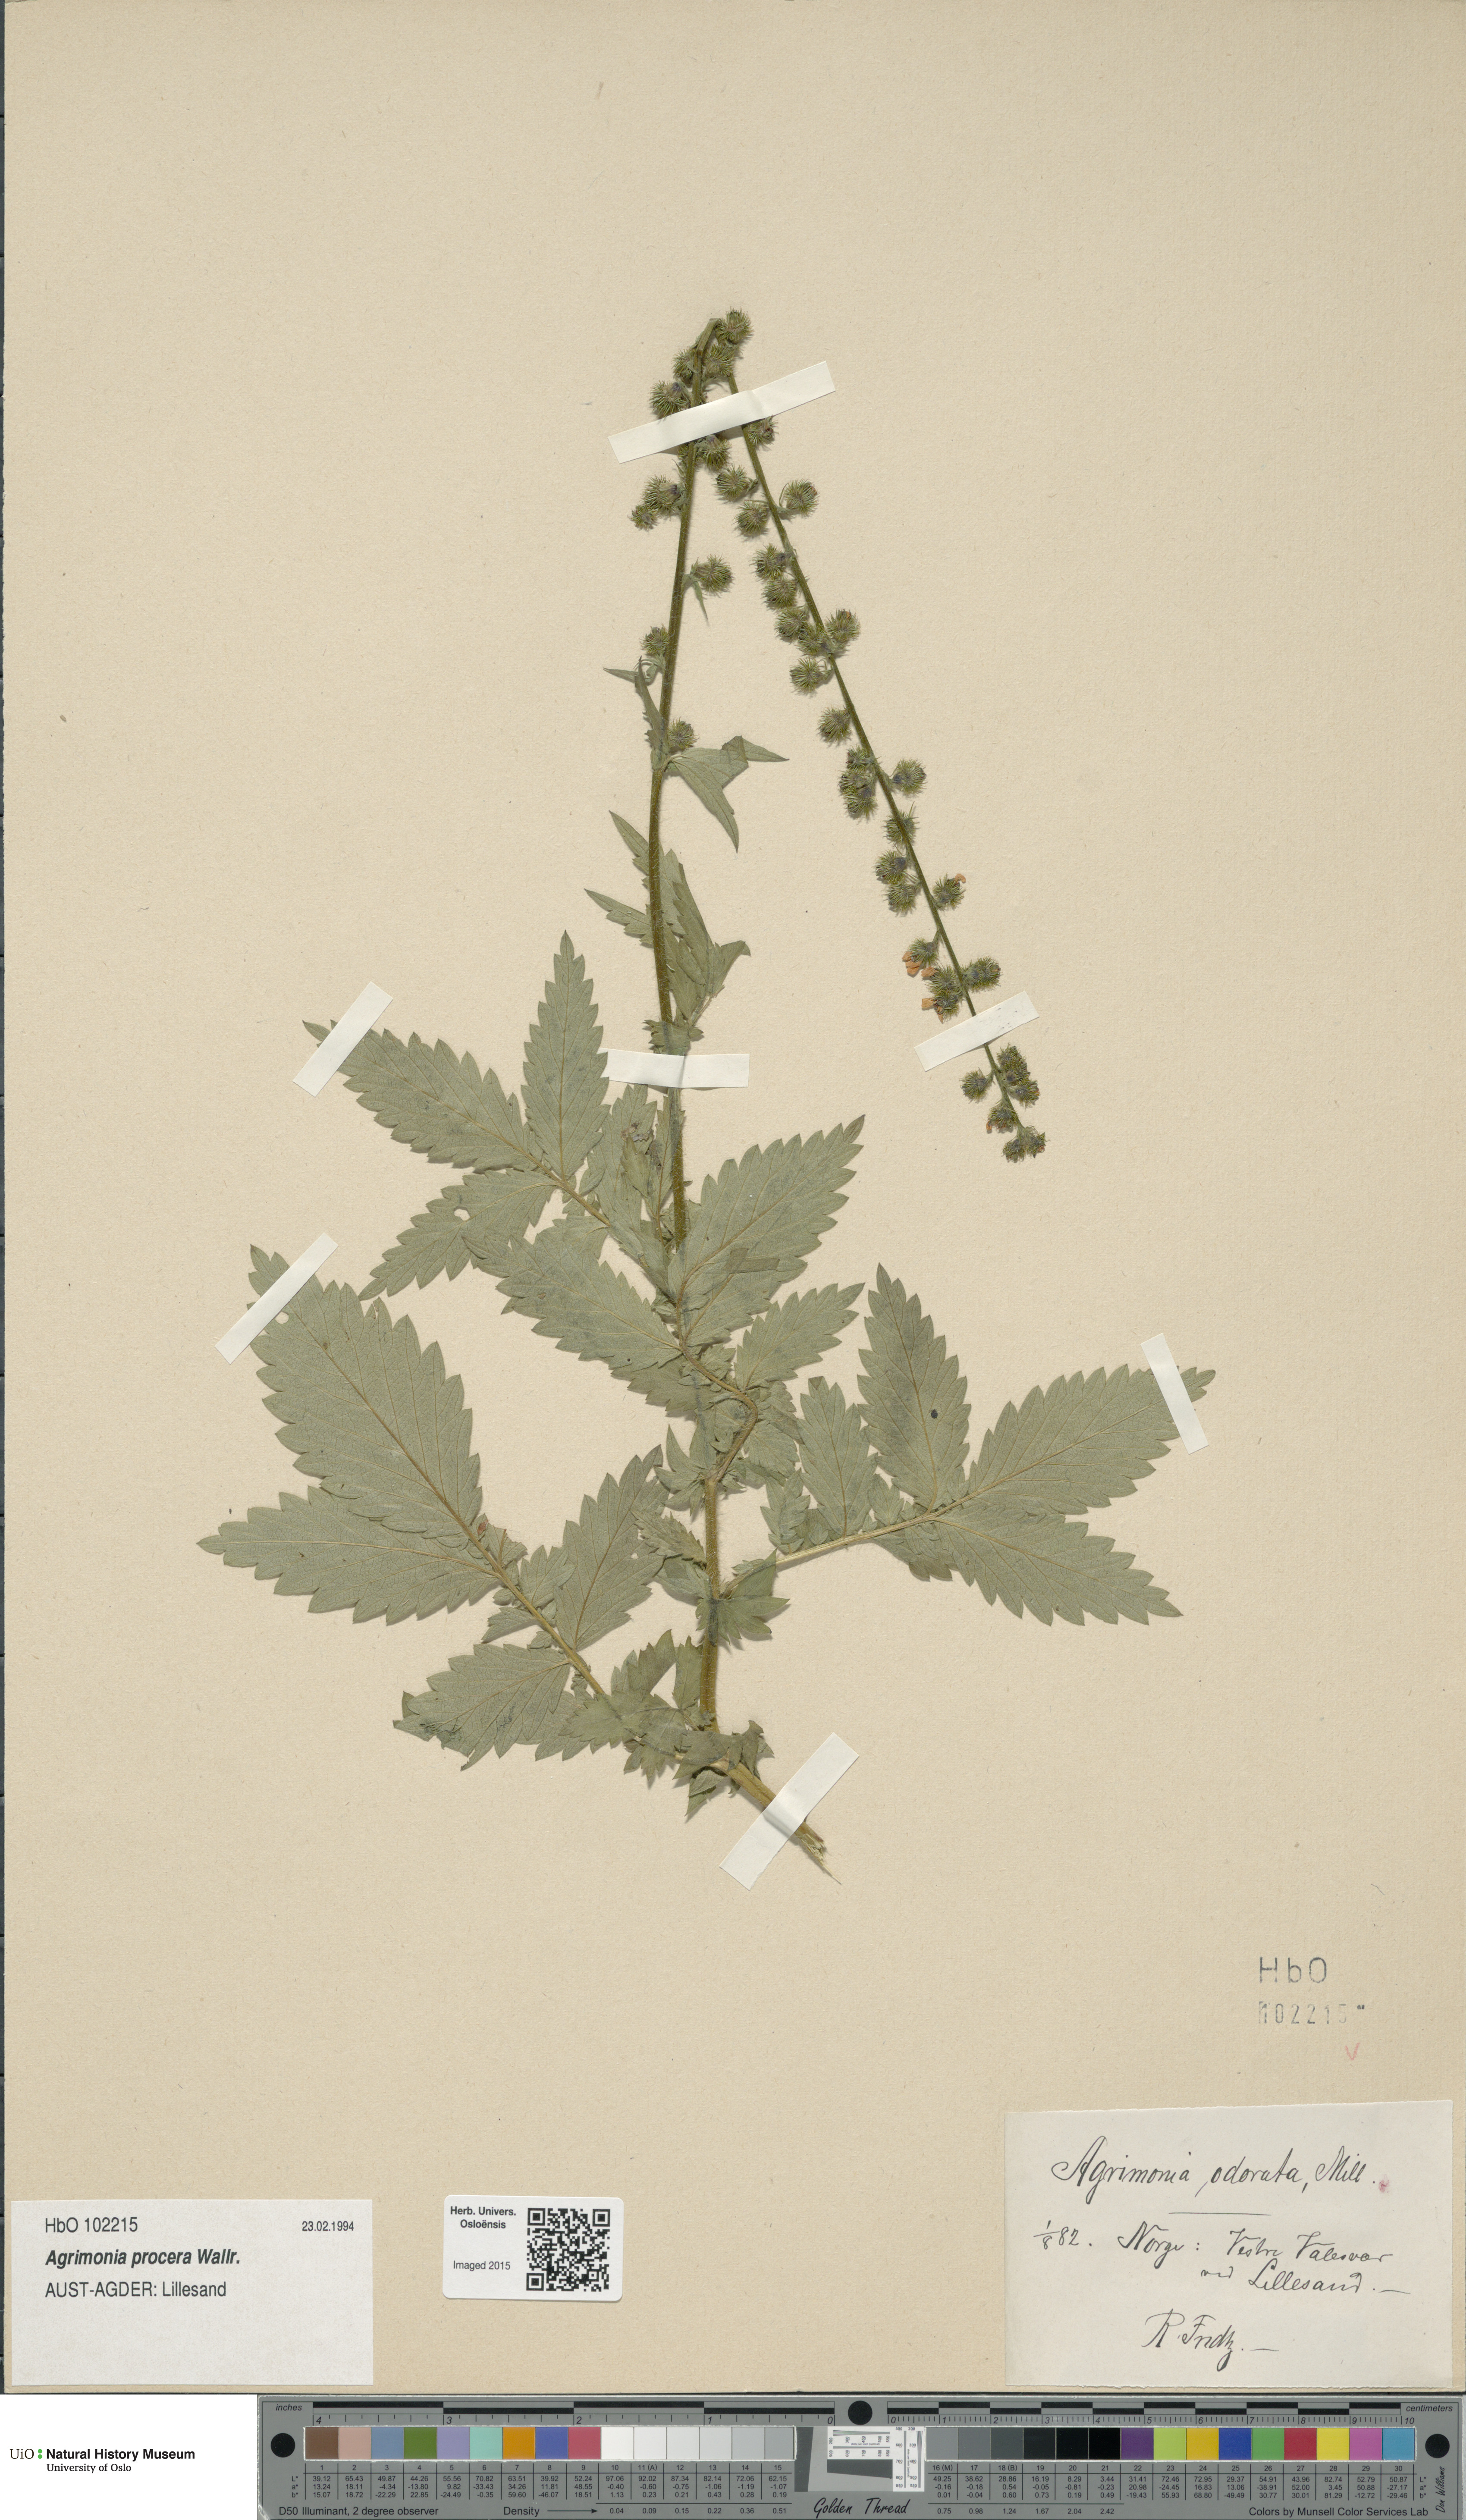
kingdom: Plantae
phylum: Tracheophyta
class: Magnoliopsida
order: Rosales
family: Rosaceae
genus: Agrimonia
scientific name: Agrimonia procera
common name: Fragrant agrimony
